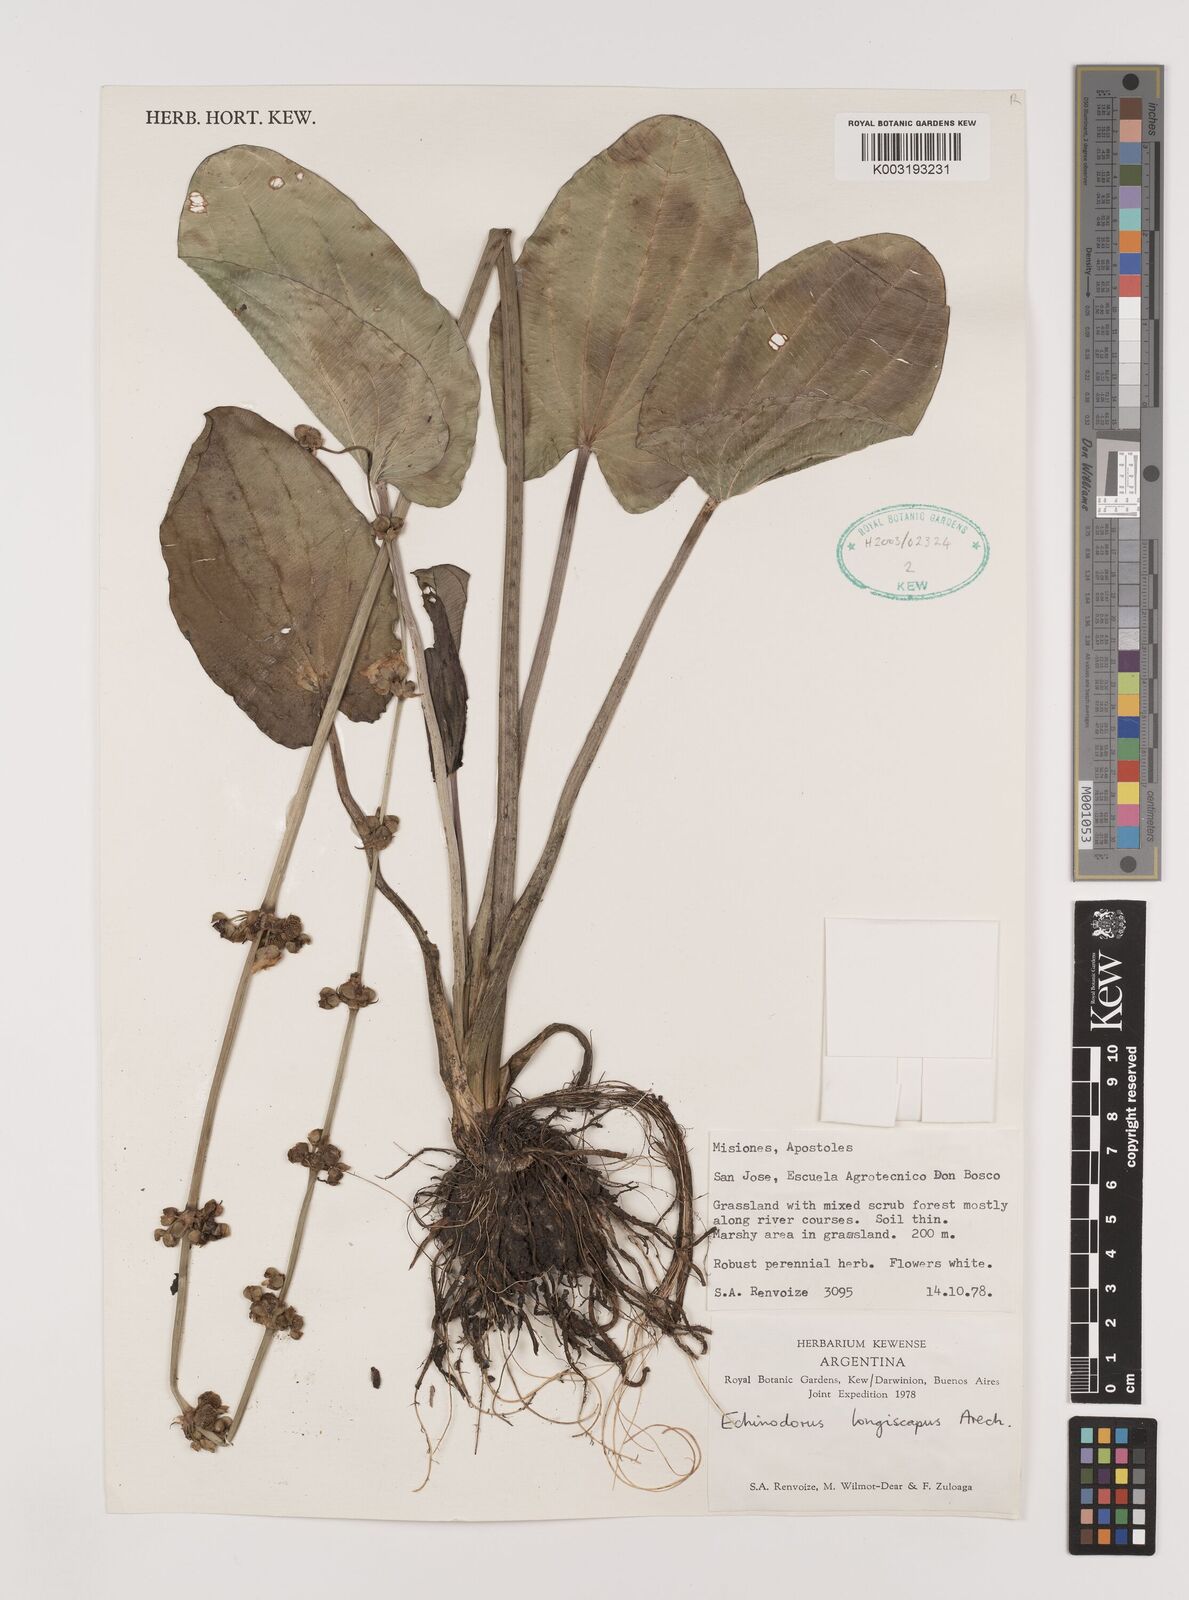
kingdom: Plantae
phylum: Tracheophyta
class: Liliopsida
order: Alismatales
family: Alismataceae
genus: Aquarius
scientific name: Aquarius longiscapus
